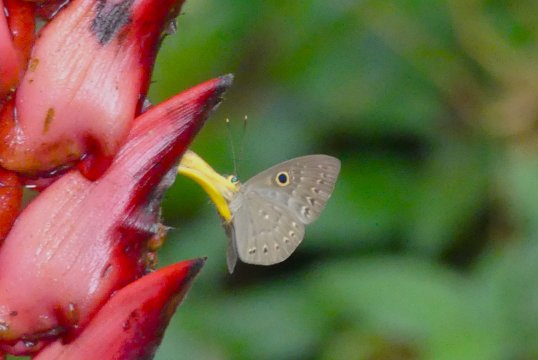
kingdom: Animalia
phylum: Cnidaria
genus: Eurybia
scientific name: Eurybia lycisca
